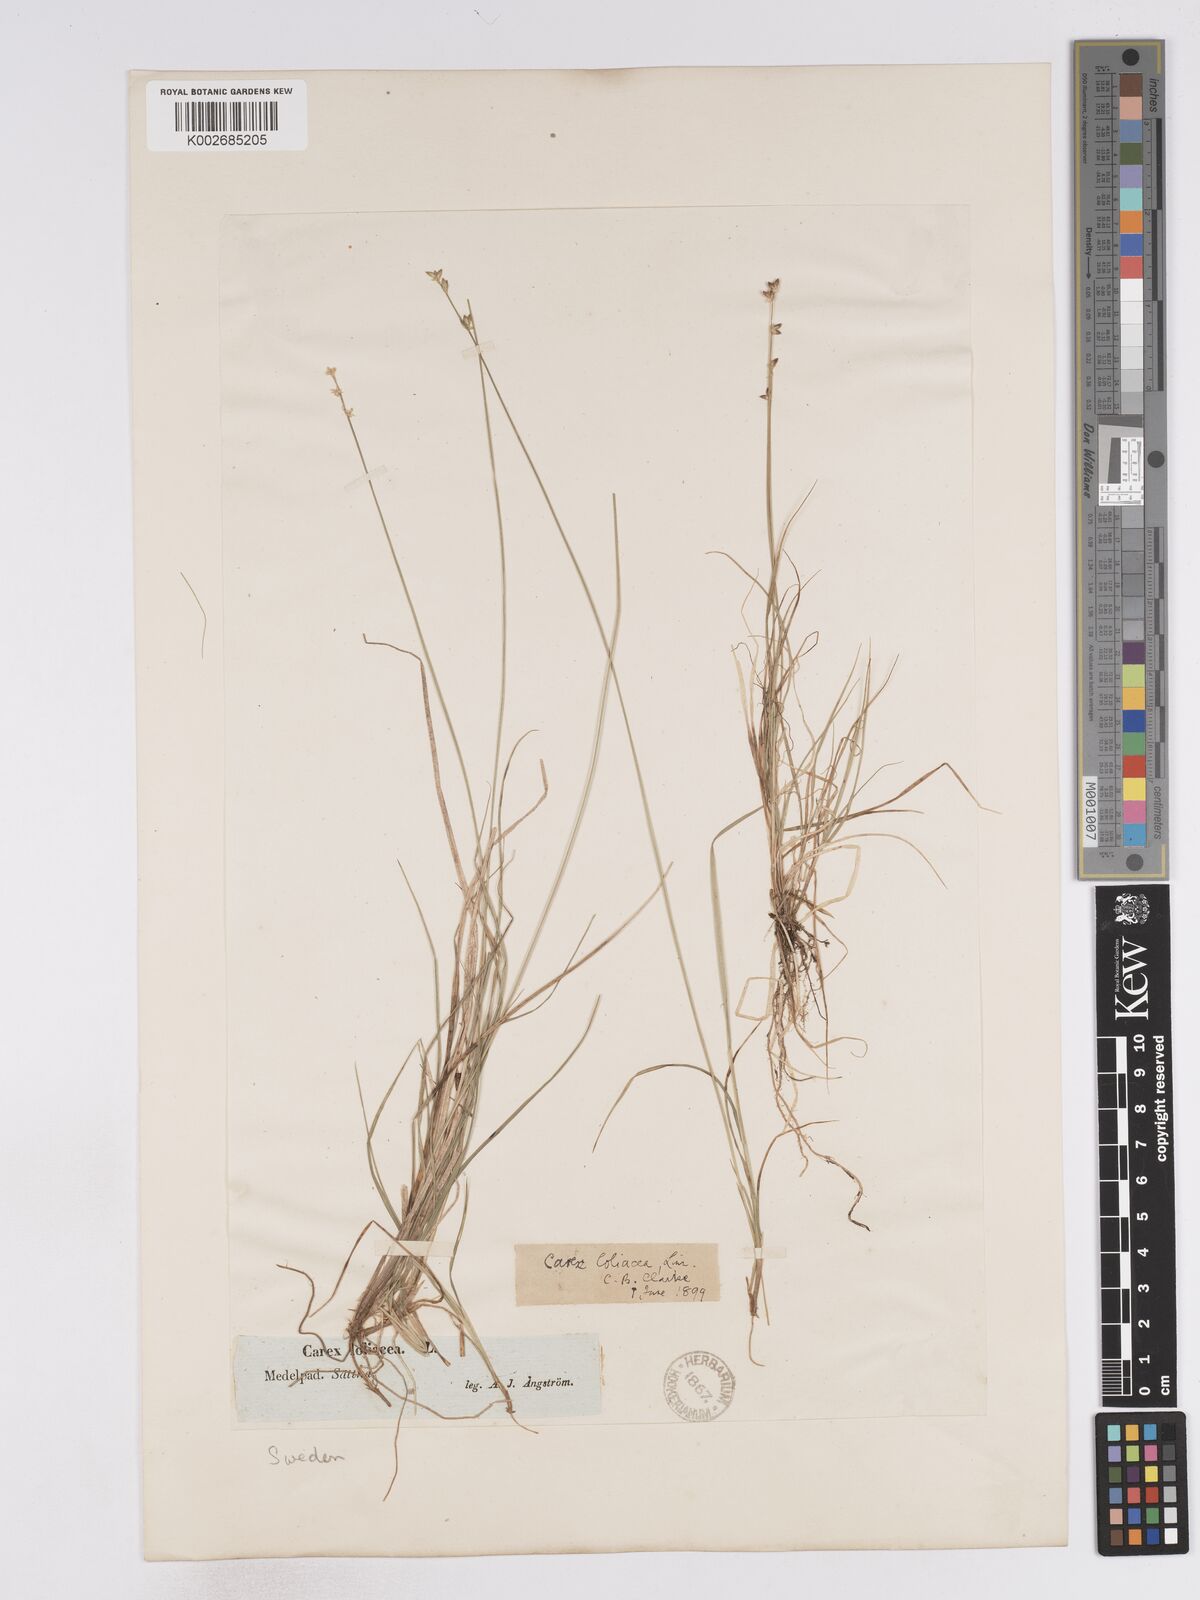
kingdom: Plantae
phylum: Tracheophyta
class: Liliopsida
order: Poales
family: Cyperaceae
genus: Carex
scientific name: Carex loliacea
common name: Ryegrass sedge
